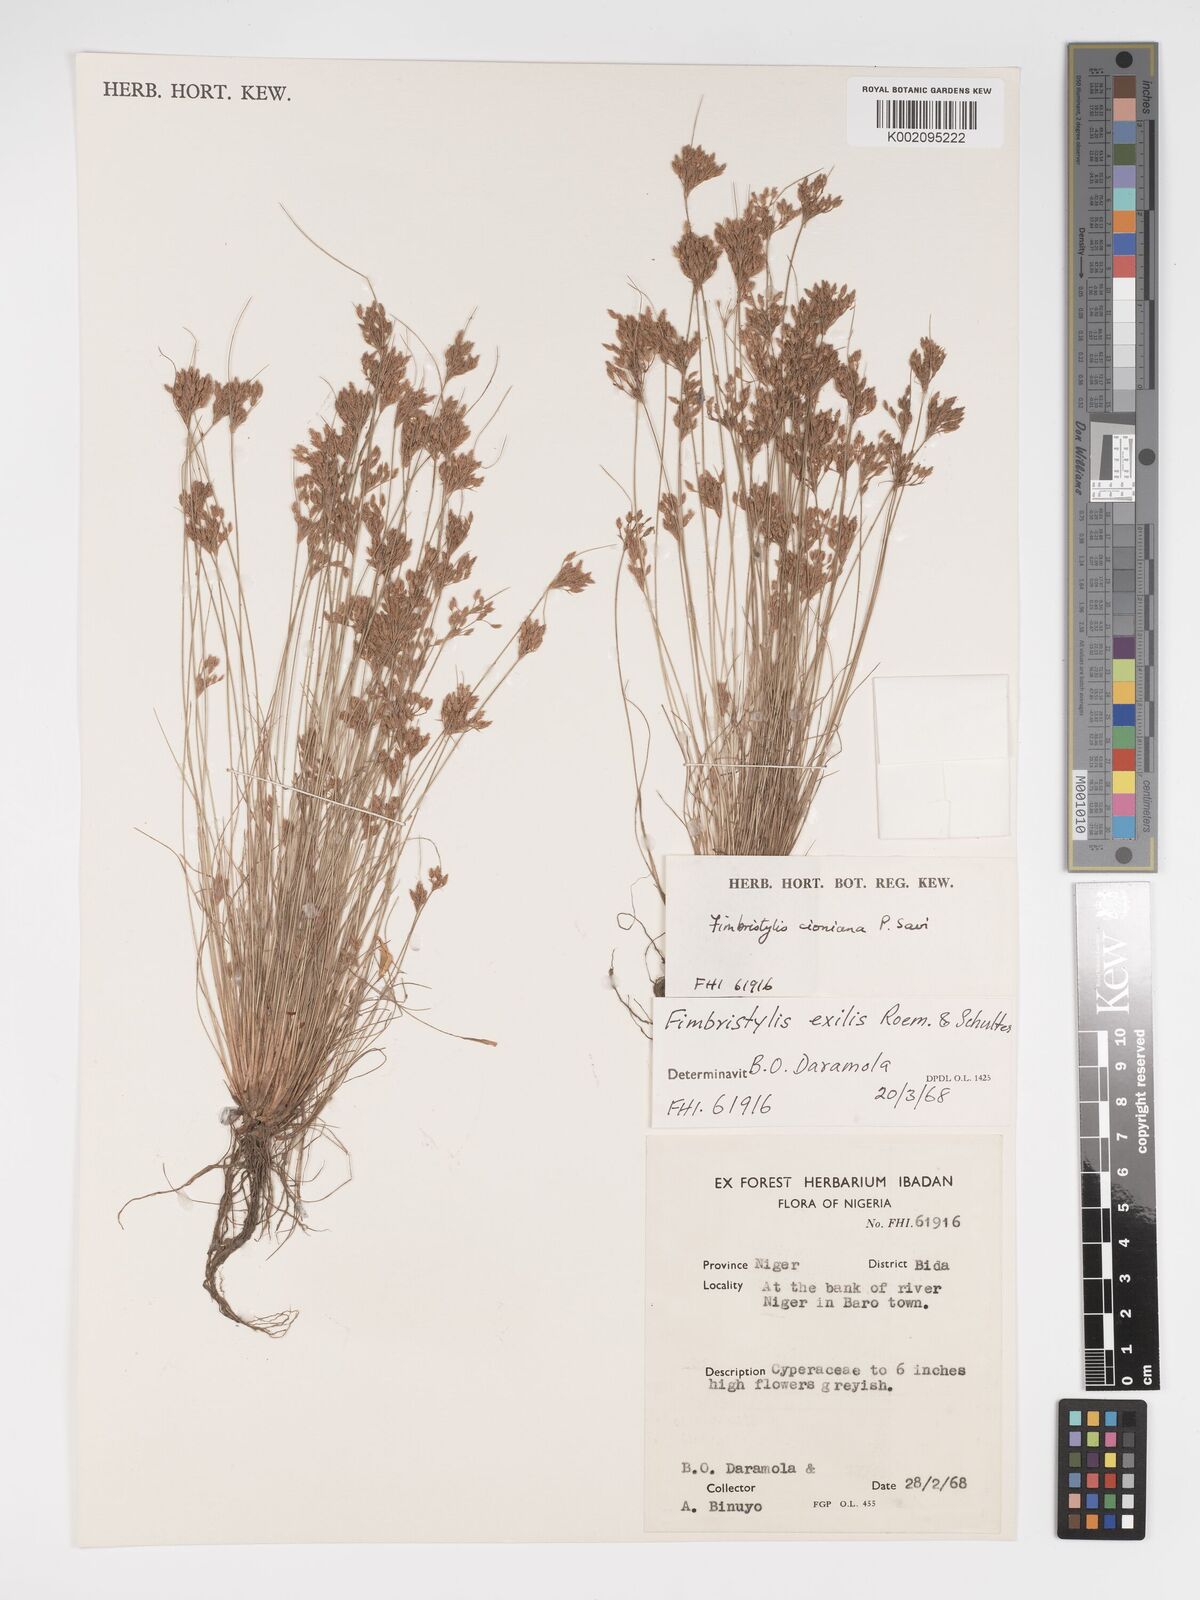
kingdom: Plantae
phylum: Tracheophyta
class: Liliopsida
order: Poales
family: Cyperaceae
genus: Bulbostylis
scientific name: Bulbostylis cioniana
